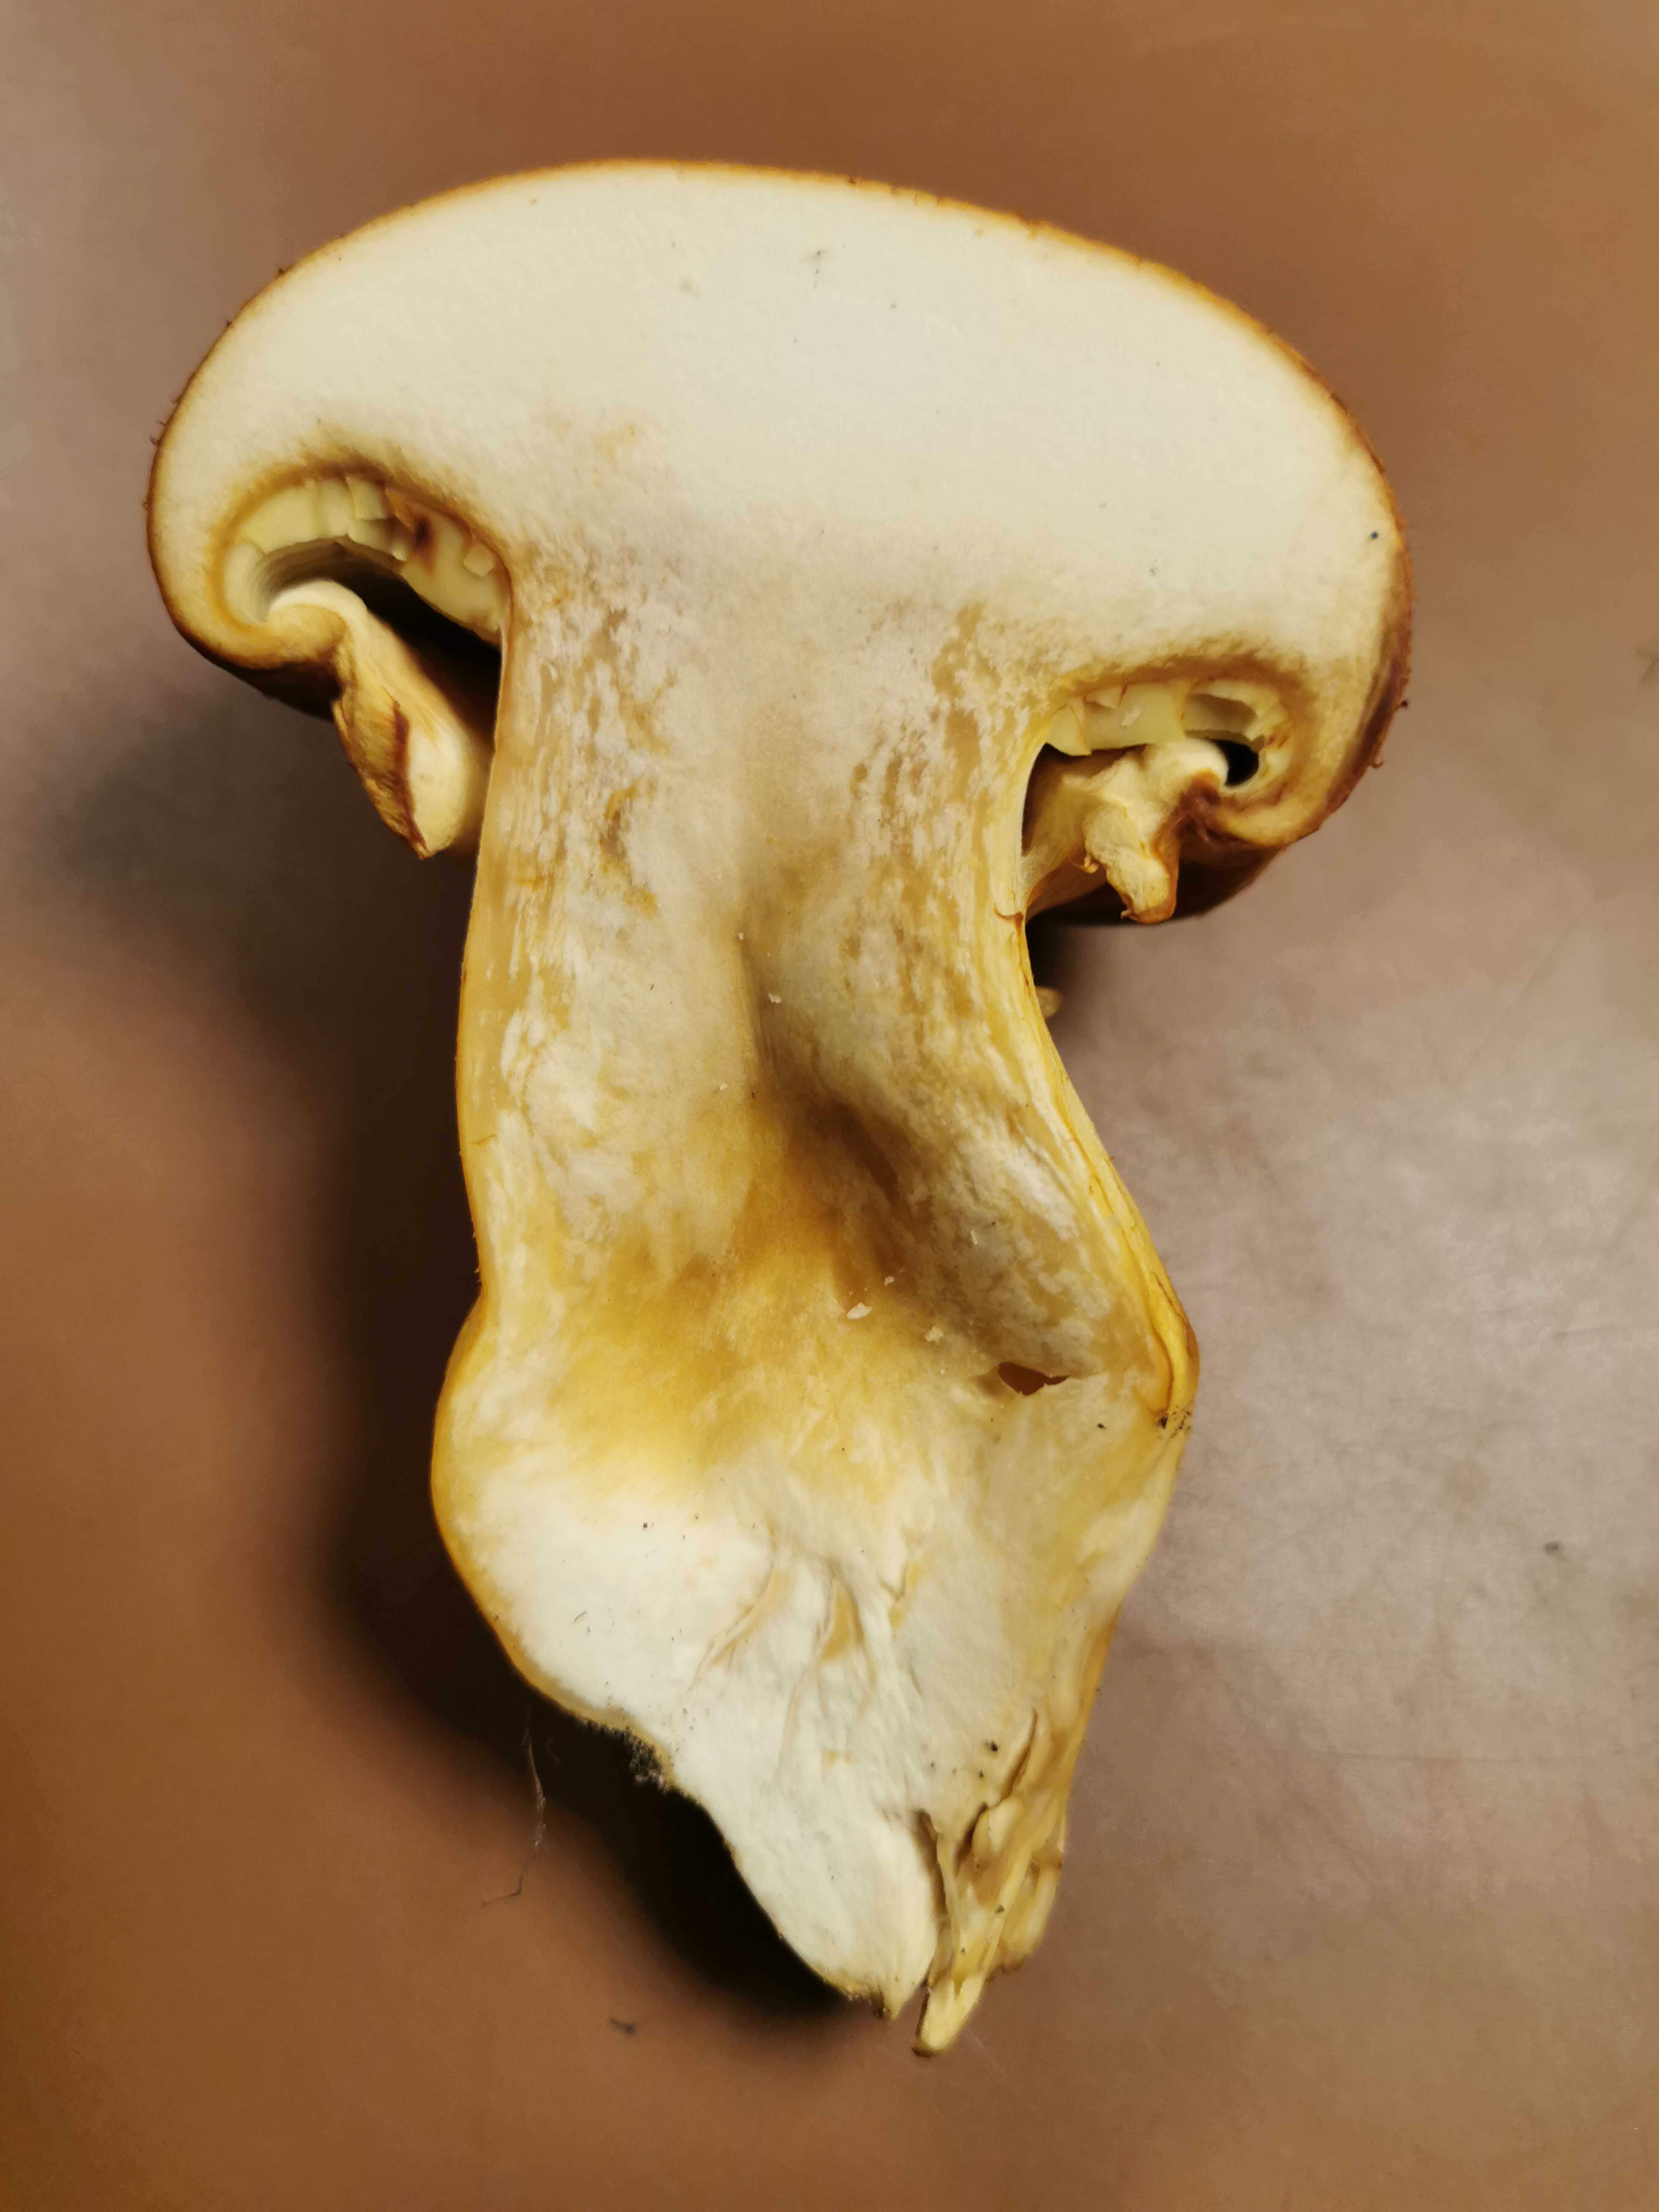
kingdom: Fungi
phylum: Basidiomycota
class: Agaricomycetes
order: Agaricales
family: Hymenogastraceae
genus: Gymnopilus
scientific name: Gymnopilus spectabilis
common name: fibret flammehat
